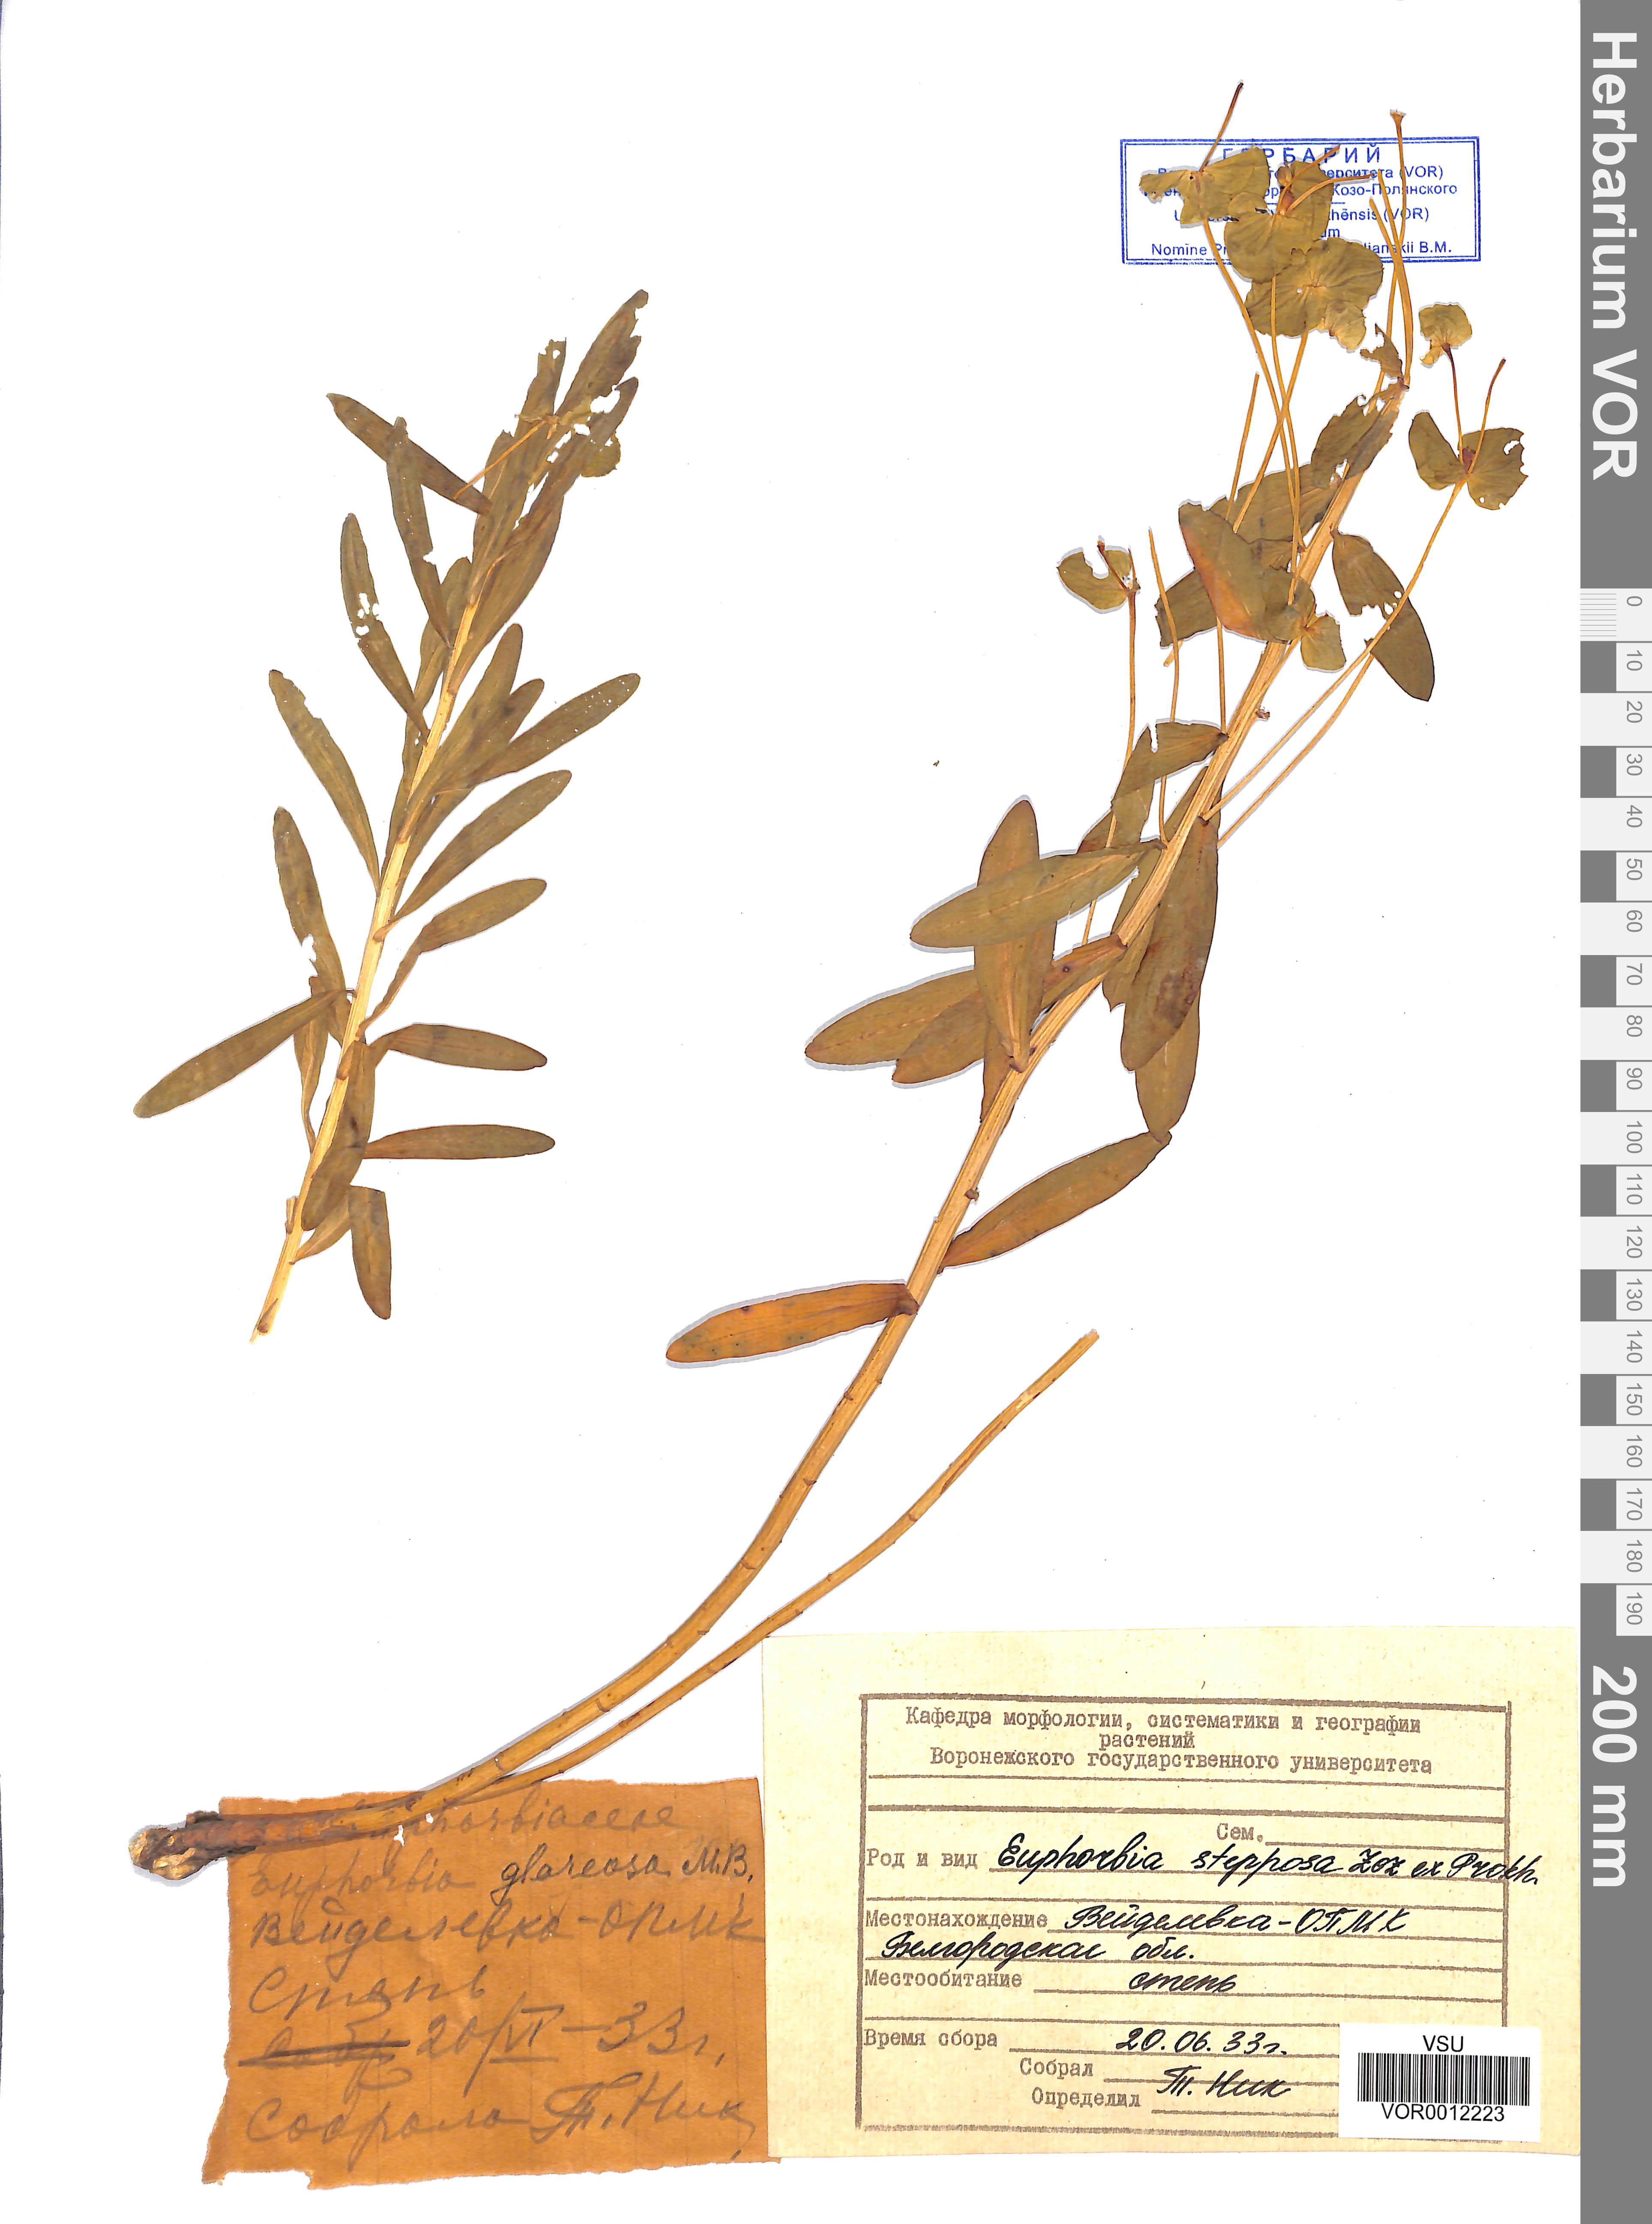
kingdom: Plantae
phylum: Tracheophyta
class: Magnoliopsida
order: Malpighiales
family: Euphorbiaceae
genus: Euphorbia
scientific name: Euphorbia stepposa
